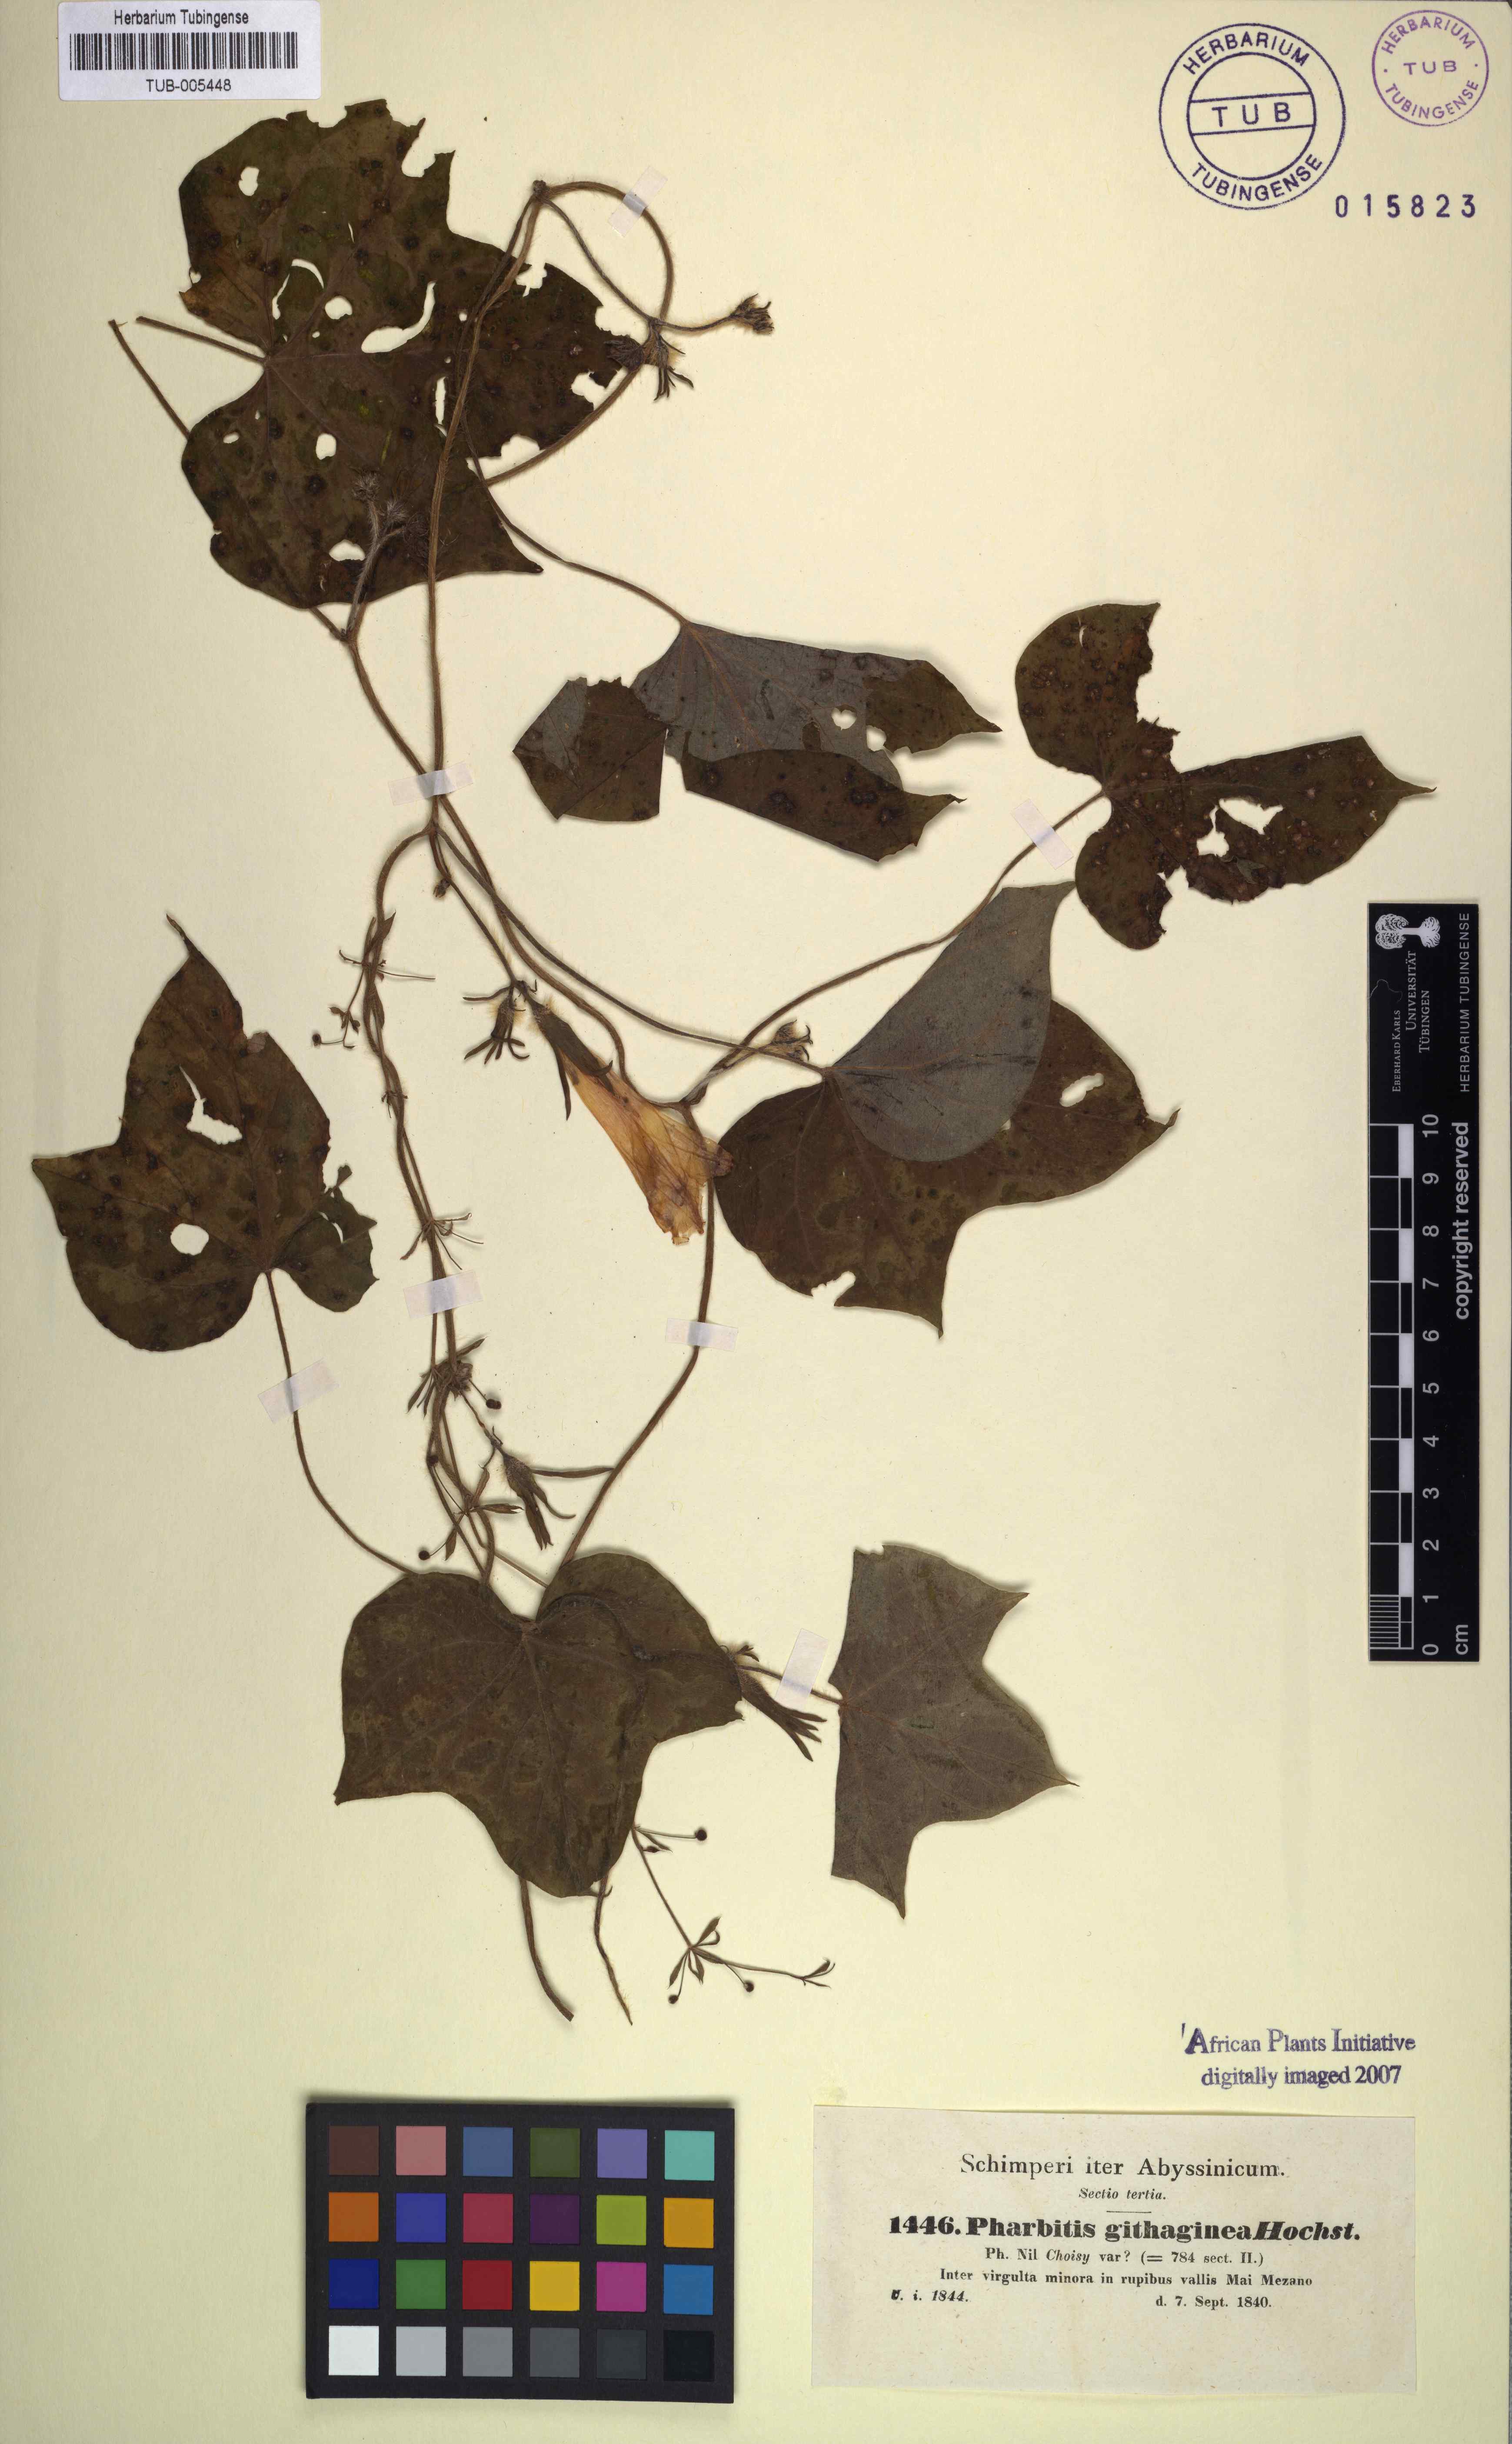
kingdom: Plantae
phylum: Tracheophyta
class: Magnoliopsida
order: Solanales
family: Convolvulaceae
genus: Ipomoea
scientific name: Ipomoea
